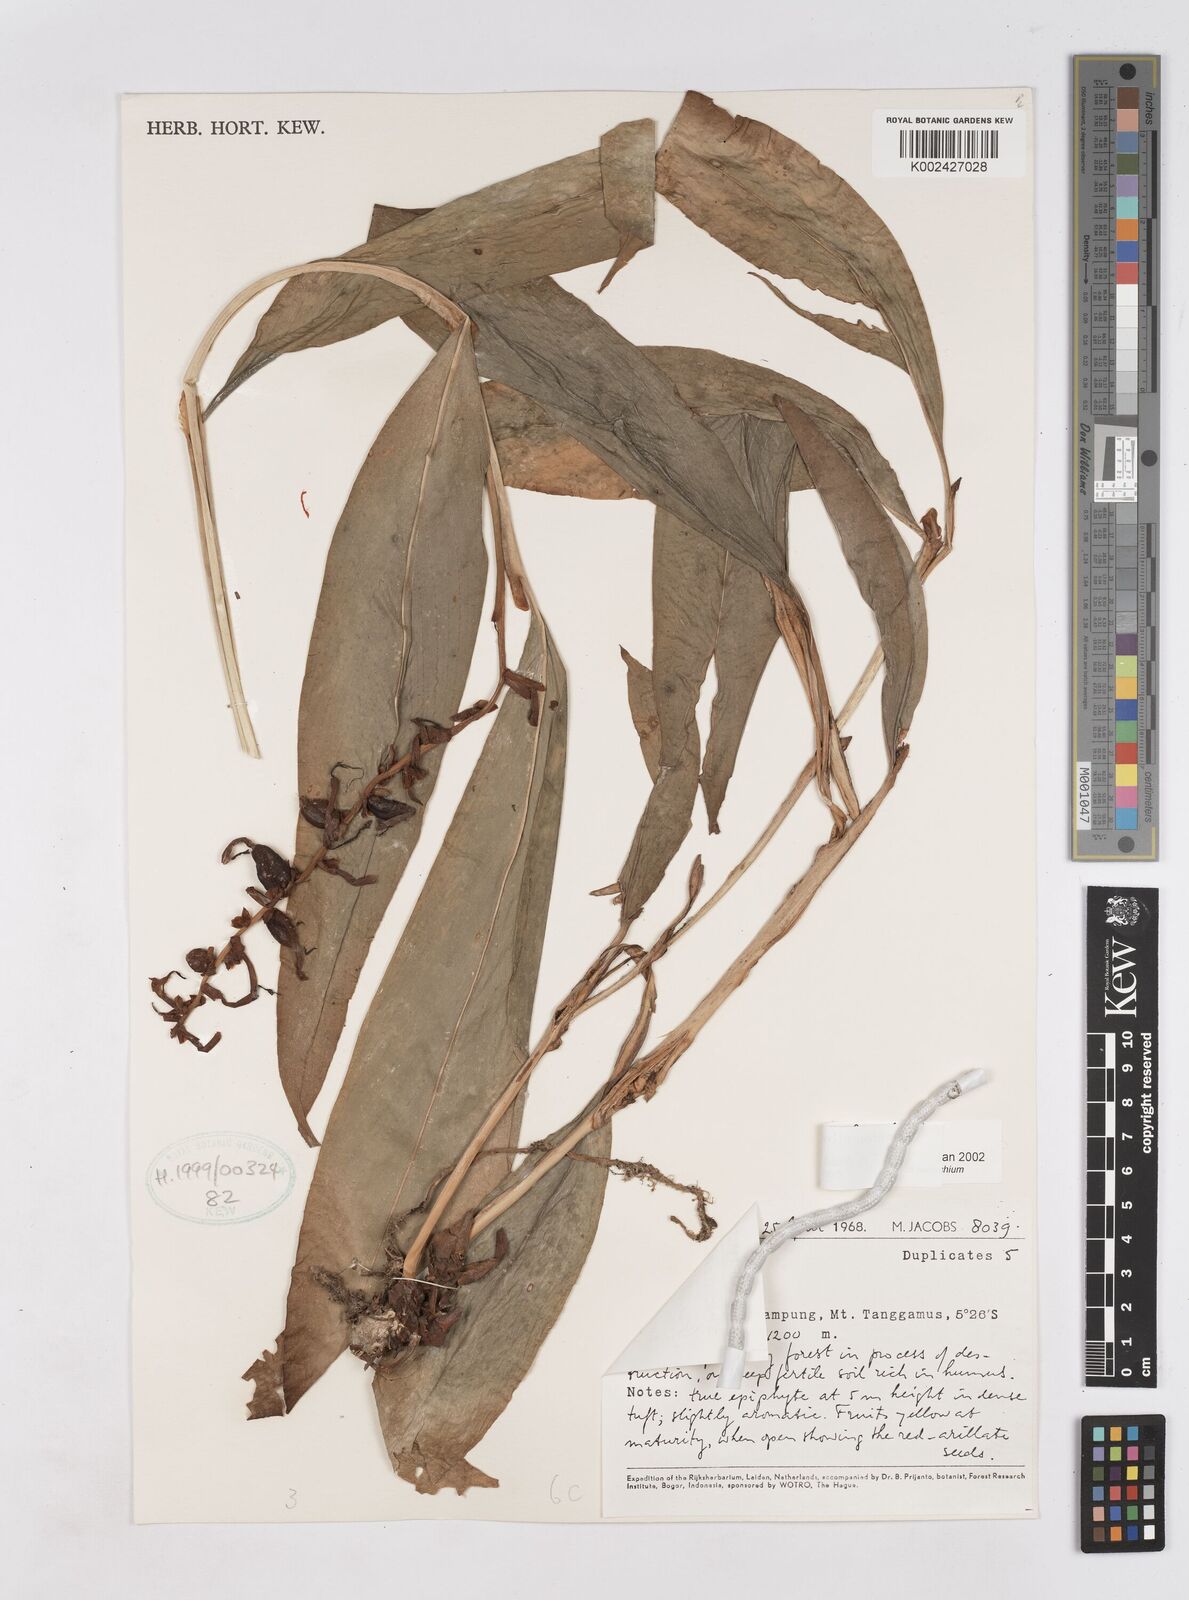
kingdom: Plantae
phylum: Tracheophyta
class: Liliopsida
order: Zingiberales
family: Zingiberaceae
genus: Hedychium
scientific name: Hedychium lineare
